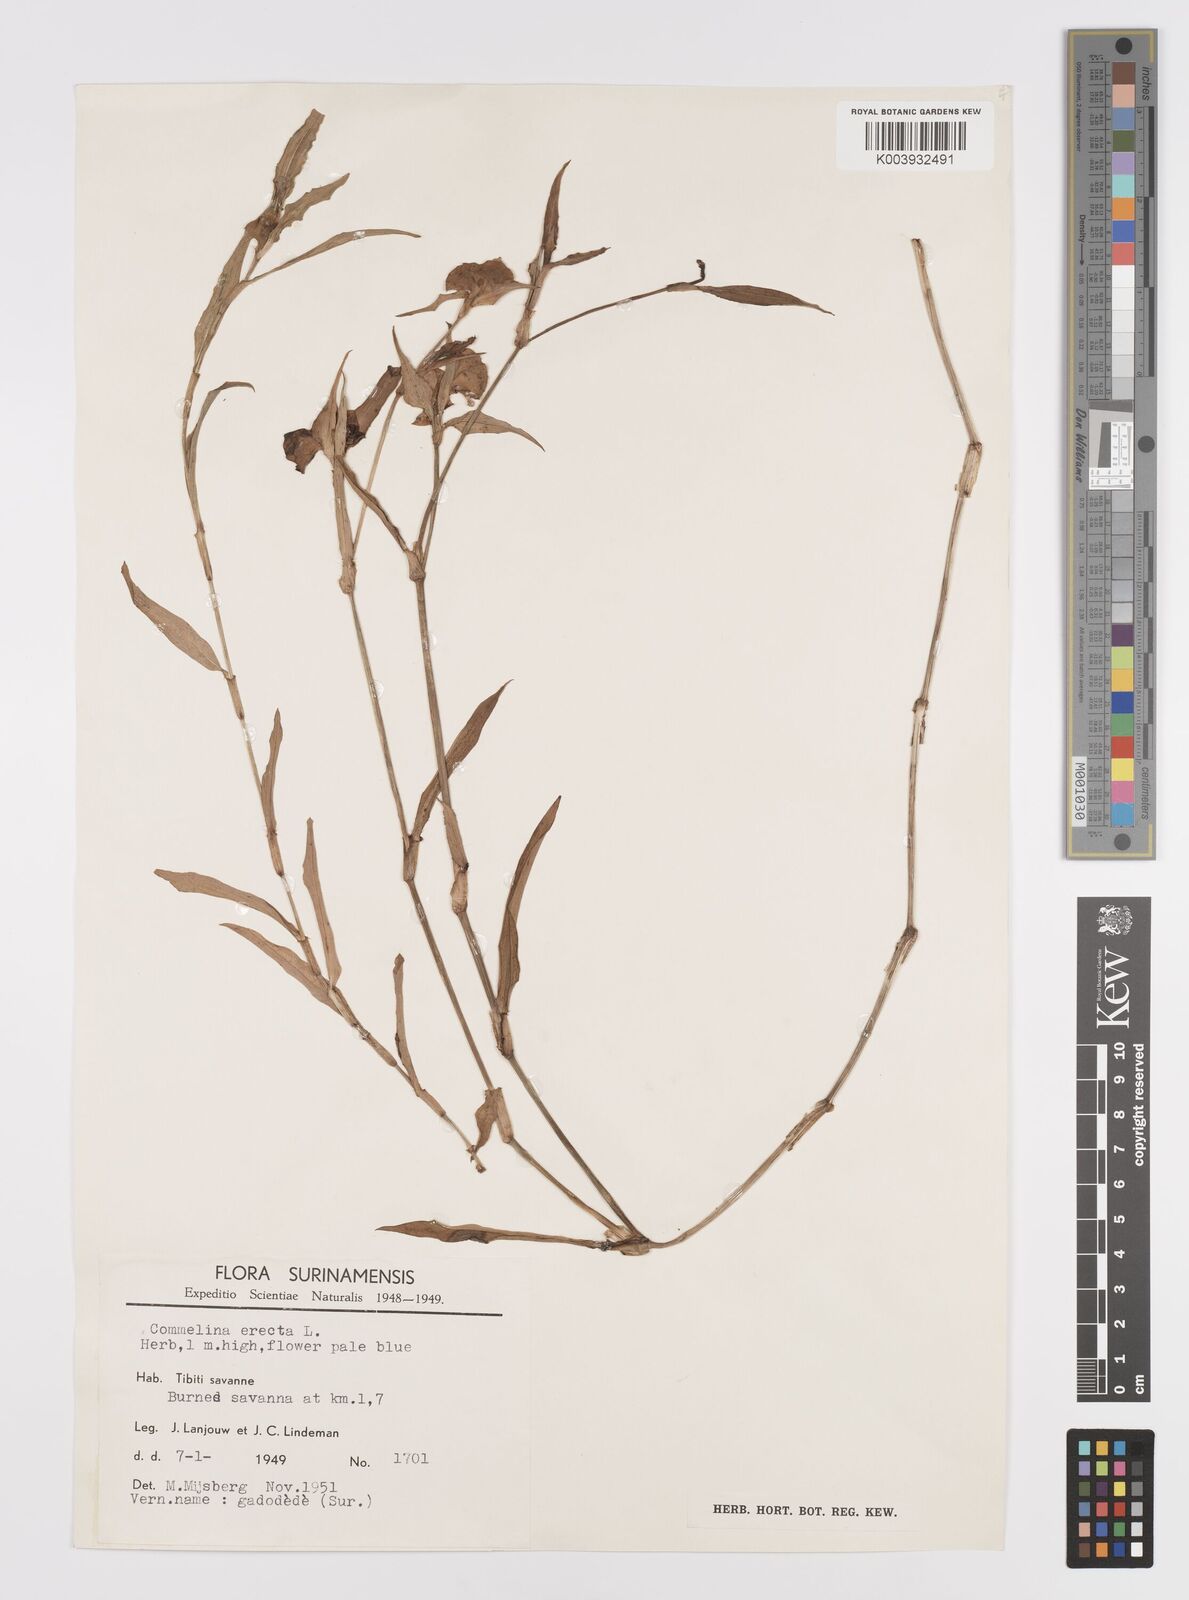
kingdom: Plantae
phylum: Tracheophyta
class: Liliopsida
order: Commelinales
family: Commelinaceae
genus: Commelina
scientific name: Commelina erecta
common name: Blousel blommetjie
